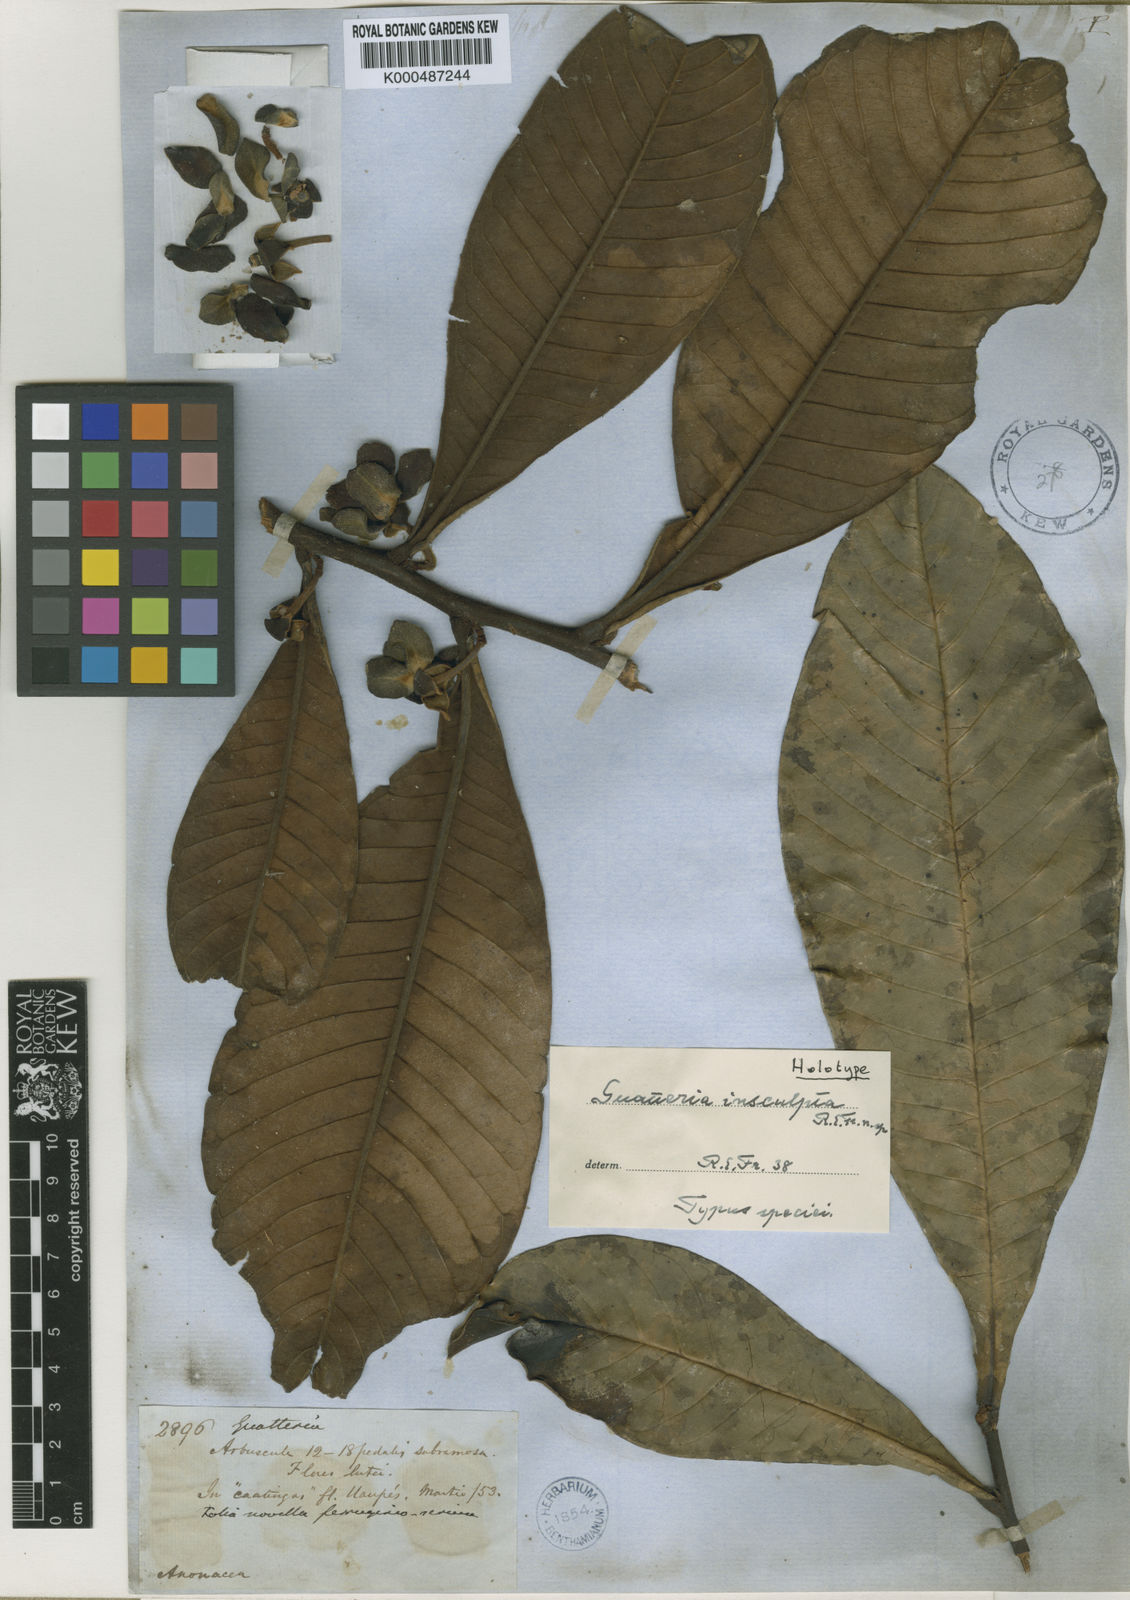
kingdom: Plantae
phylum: Tracheophyta
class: Magnoliopsida
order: Magnoliales
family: Annonaceae
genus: Guatteria
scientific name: Guatteria insculpta
